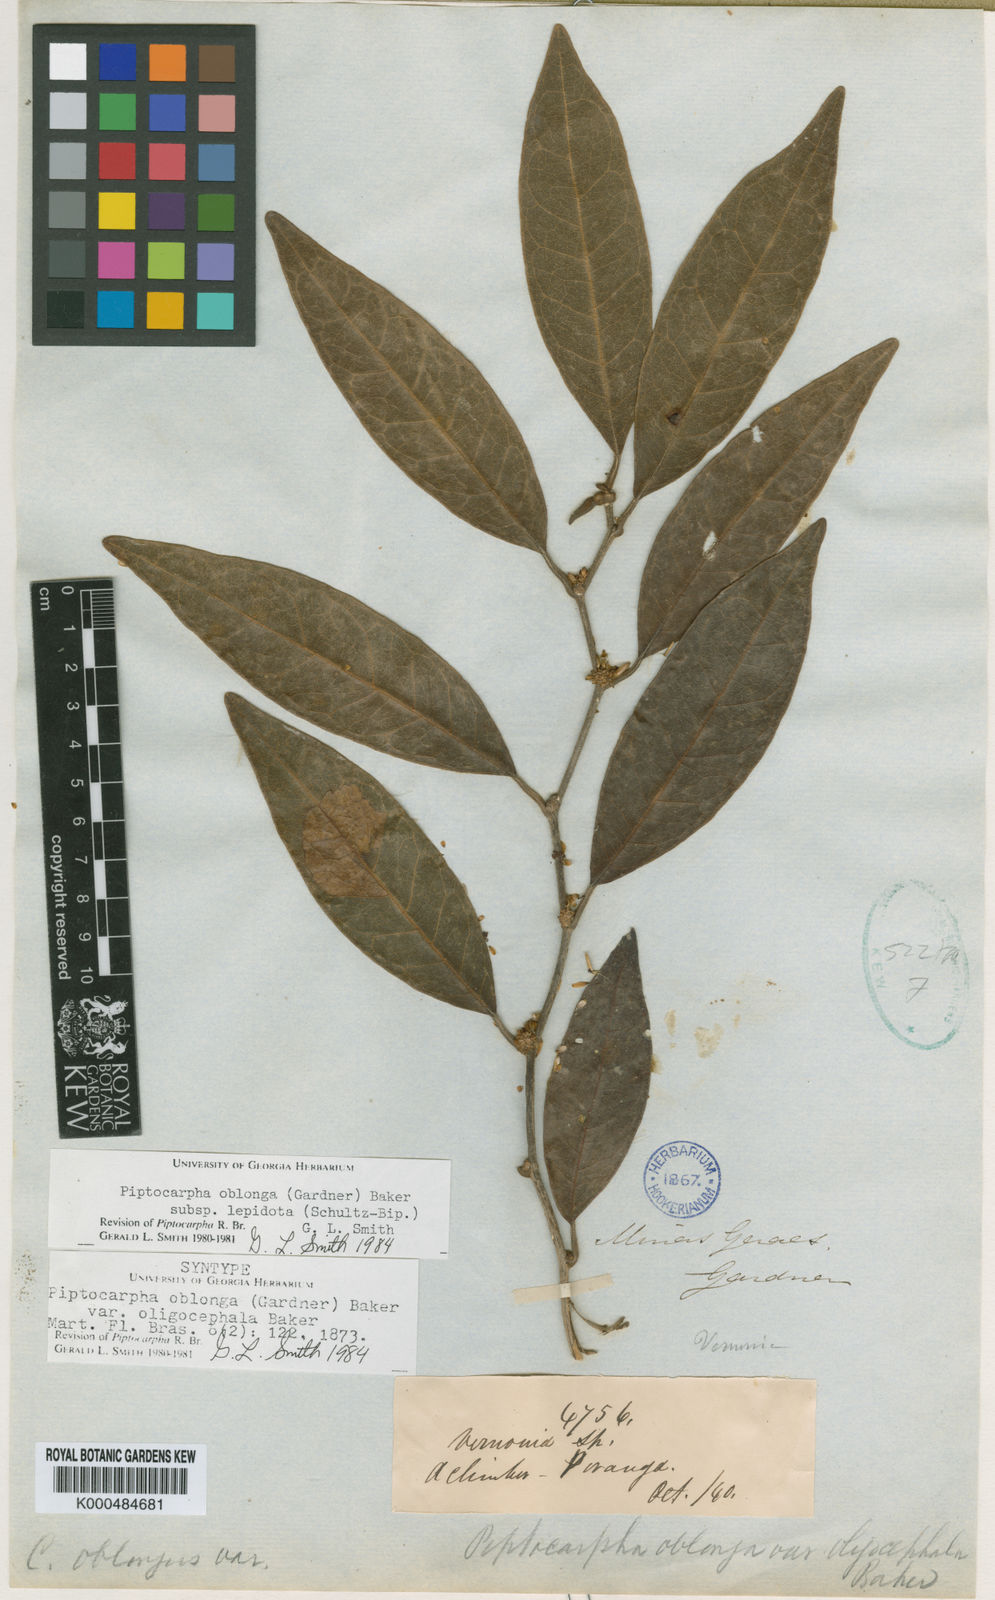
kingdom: Plantae
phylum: Tracheophyta
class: Magnoliopsida
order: Asterales
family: Asteraceae
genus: Piptocarpha
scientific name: Piptocarpha oblonga
